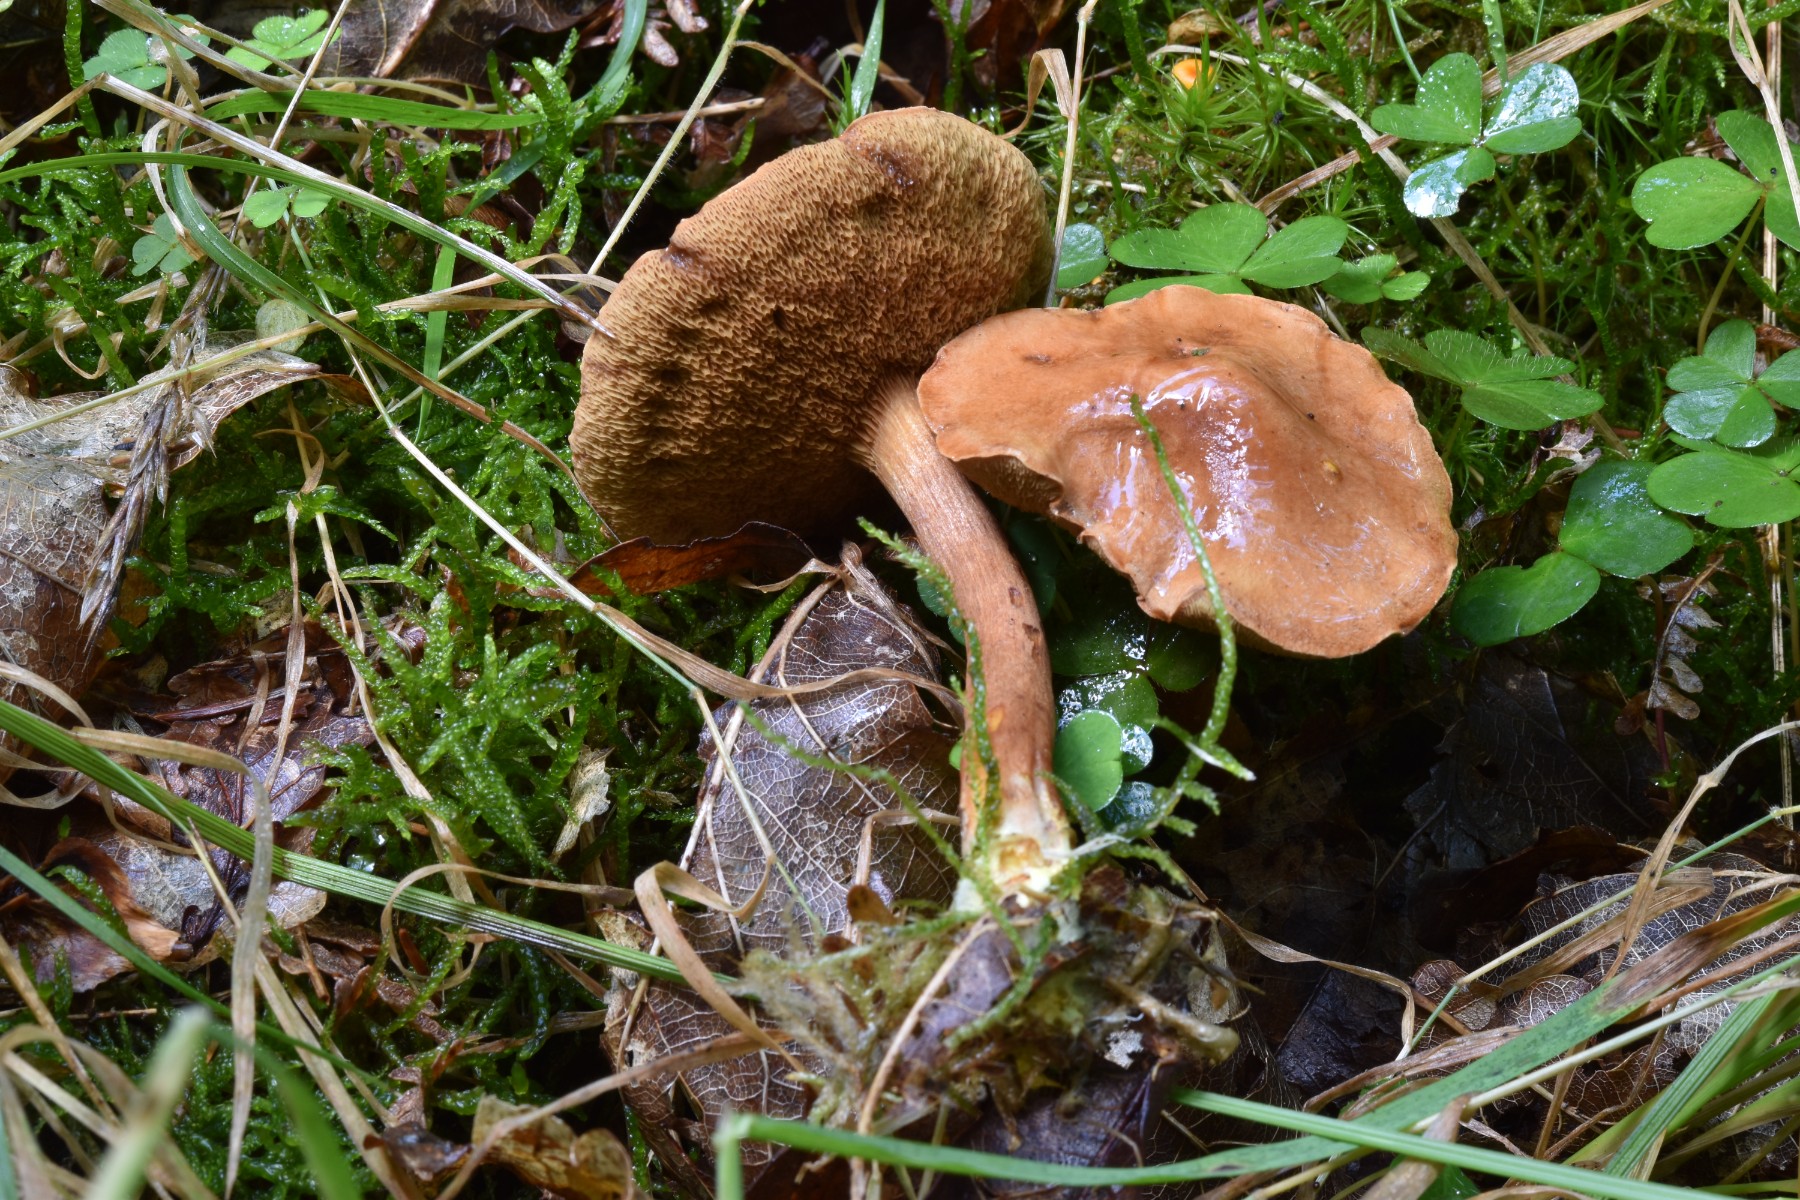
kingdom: Fungi
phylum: Basidiomycota
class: Agaricomycetes
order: Boletales
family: Boletaceae
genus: Chalciporus
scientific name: Chalciporus piperatus
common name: peberrørhat
